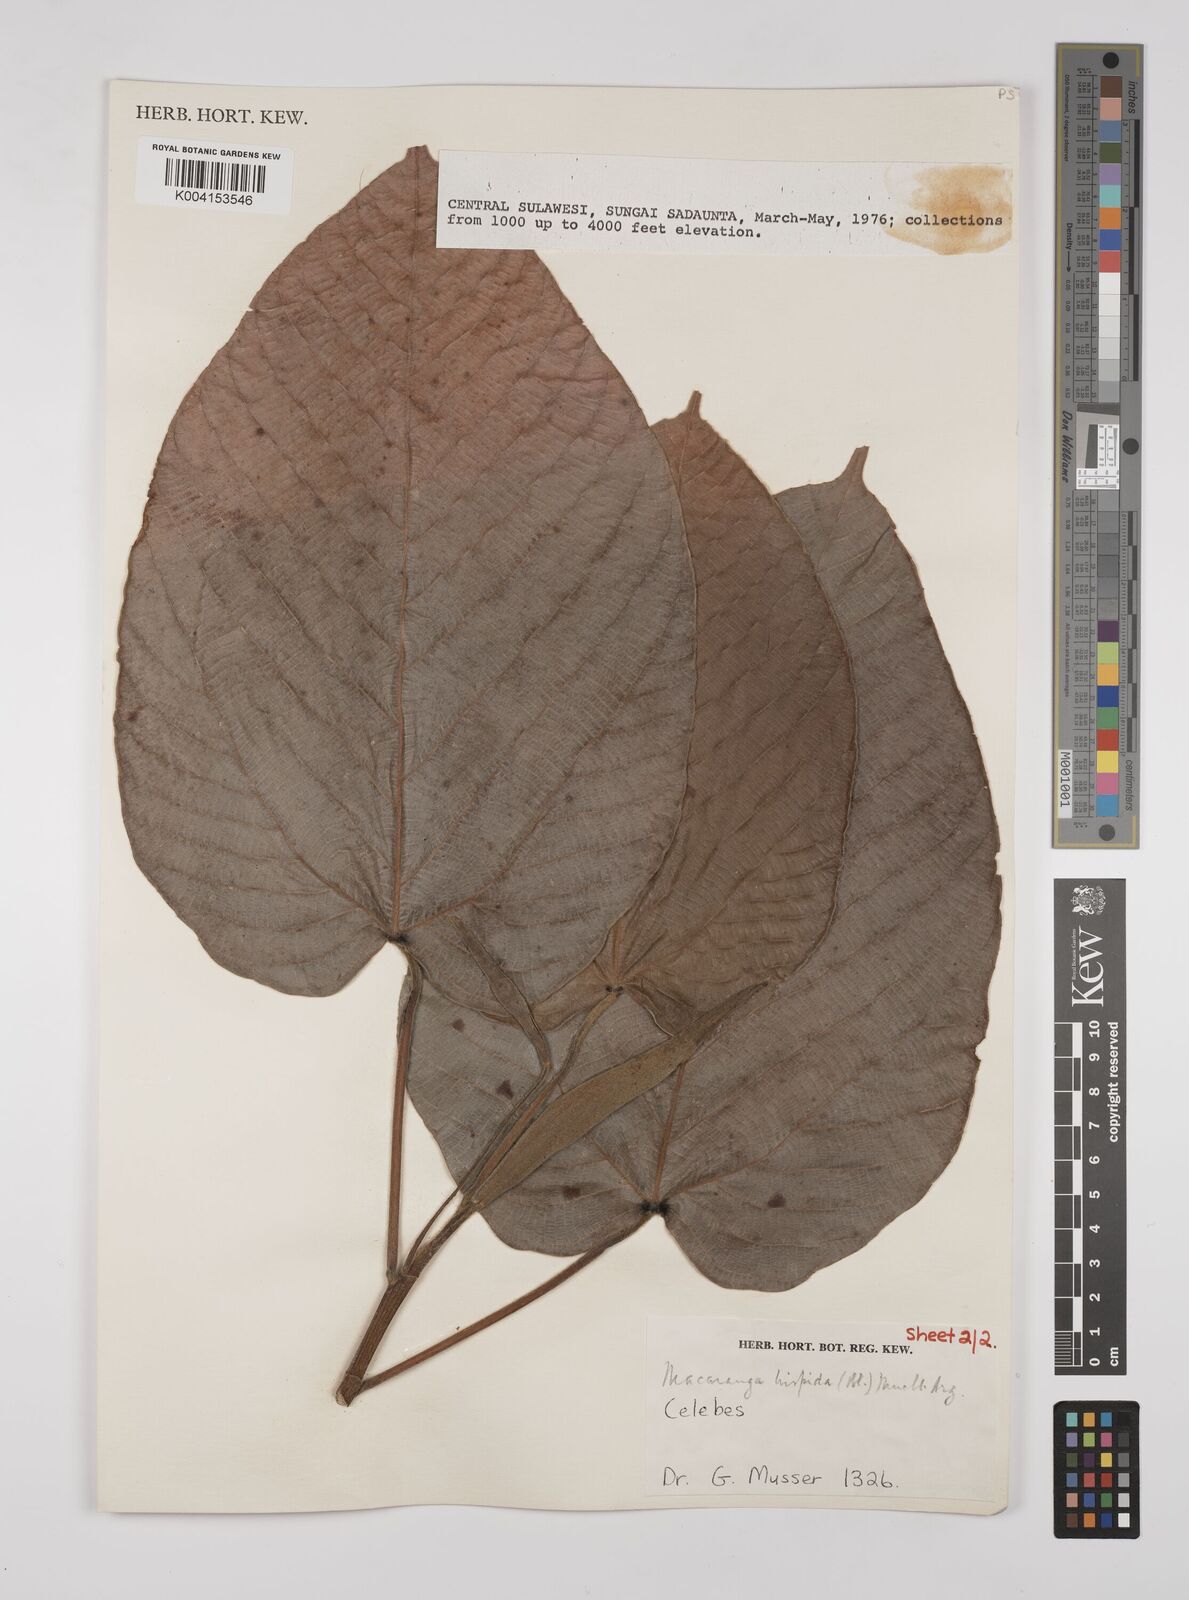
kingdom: Plantae
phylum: Tracheophyta
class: Magnoliopsida
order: Malpighiales
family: Euphorbiaceae
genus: Macaranga
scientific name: Macaranga hispida
